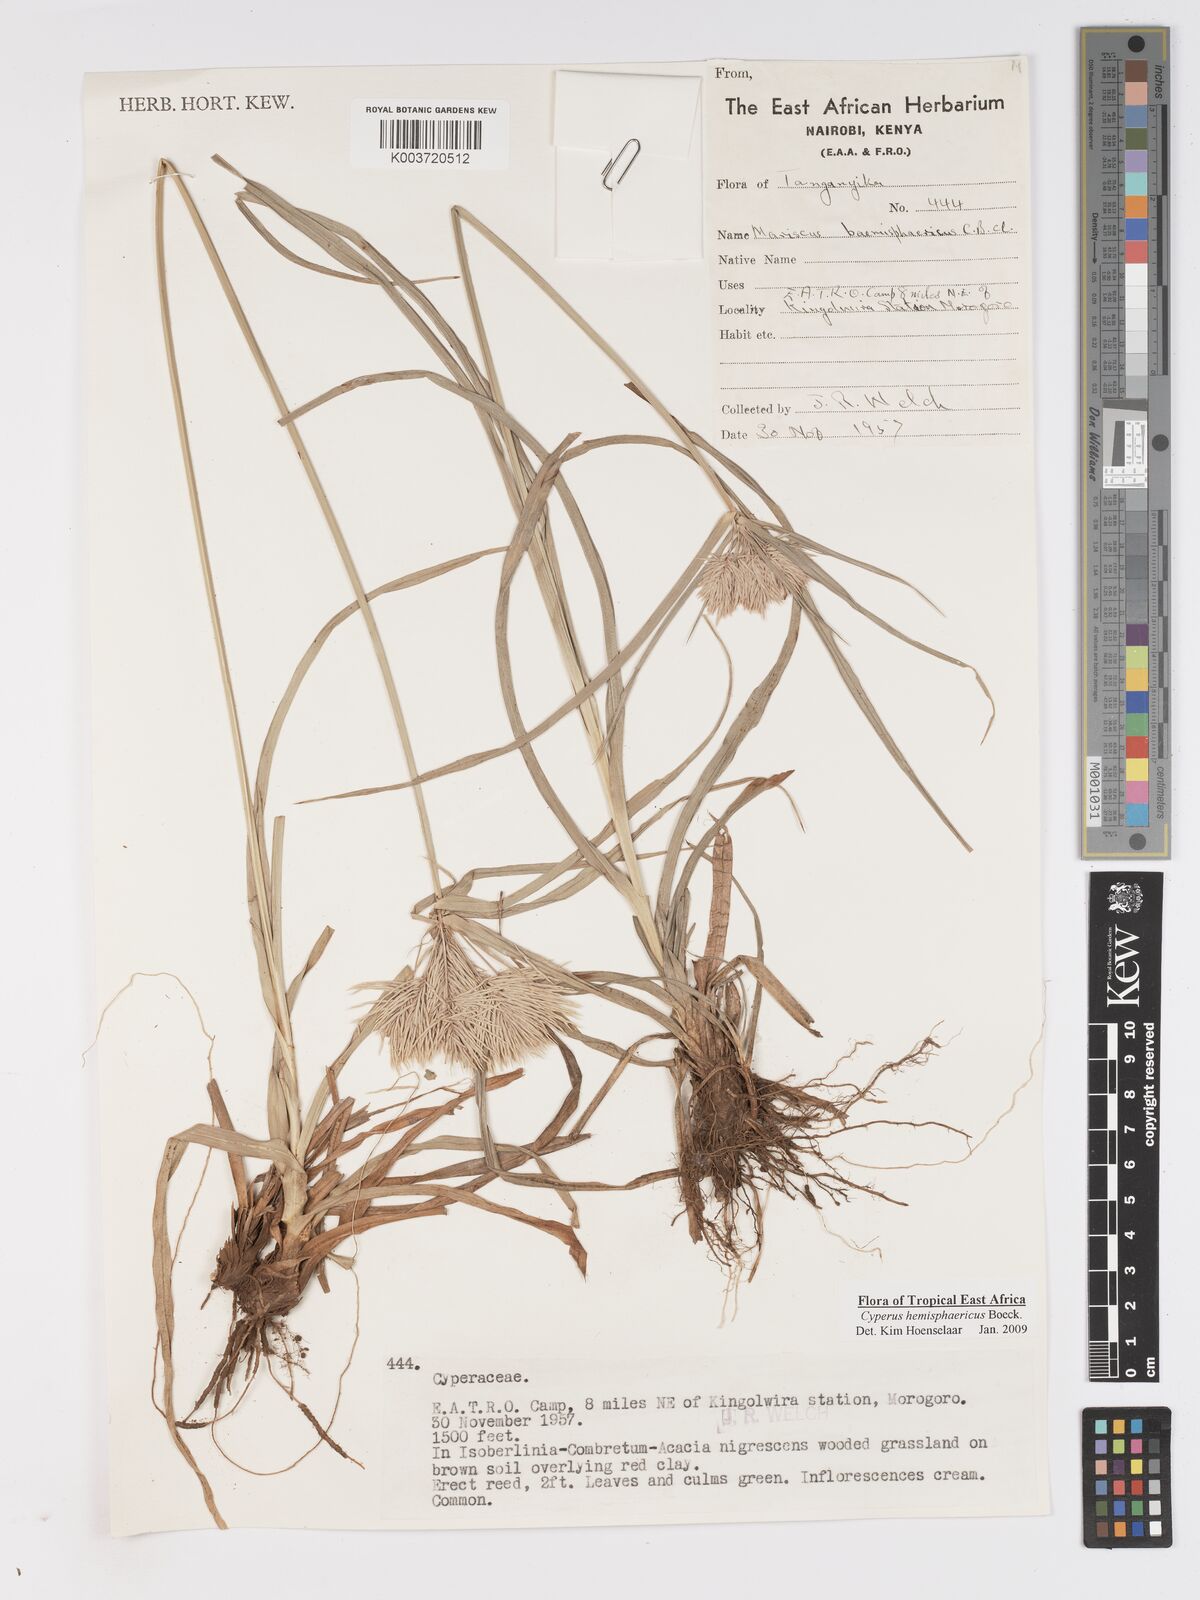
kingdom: Plantae
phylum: Tracheophyta
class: Liliopsida
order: Poales
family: Cyperaceae
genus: Cyperus
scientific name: Cyperus hemisphaericus
